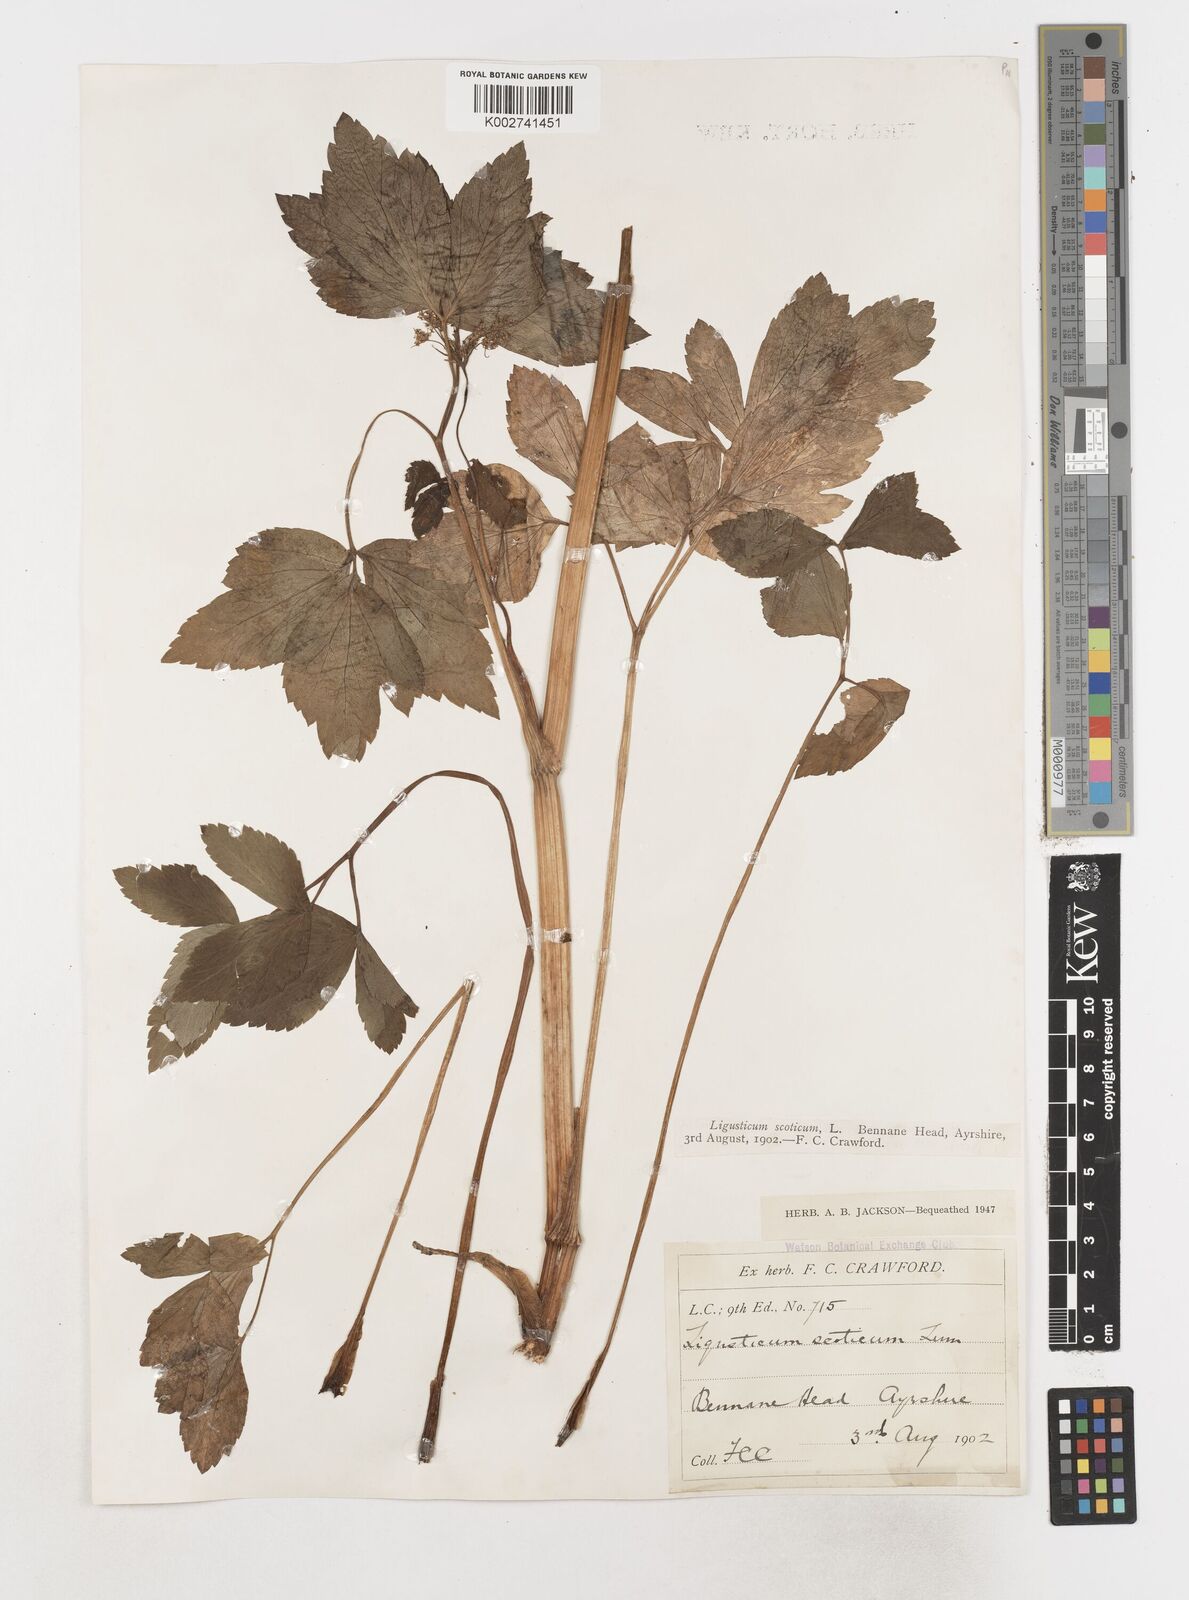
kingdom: Plantae
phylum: Tracheophyta
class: Magnoliopsida
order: Apiales
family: Apiaceae
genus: Ligusticum
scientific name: Ligusticum scothicum
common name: Beach lovage
